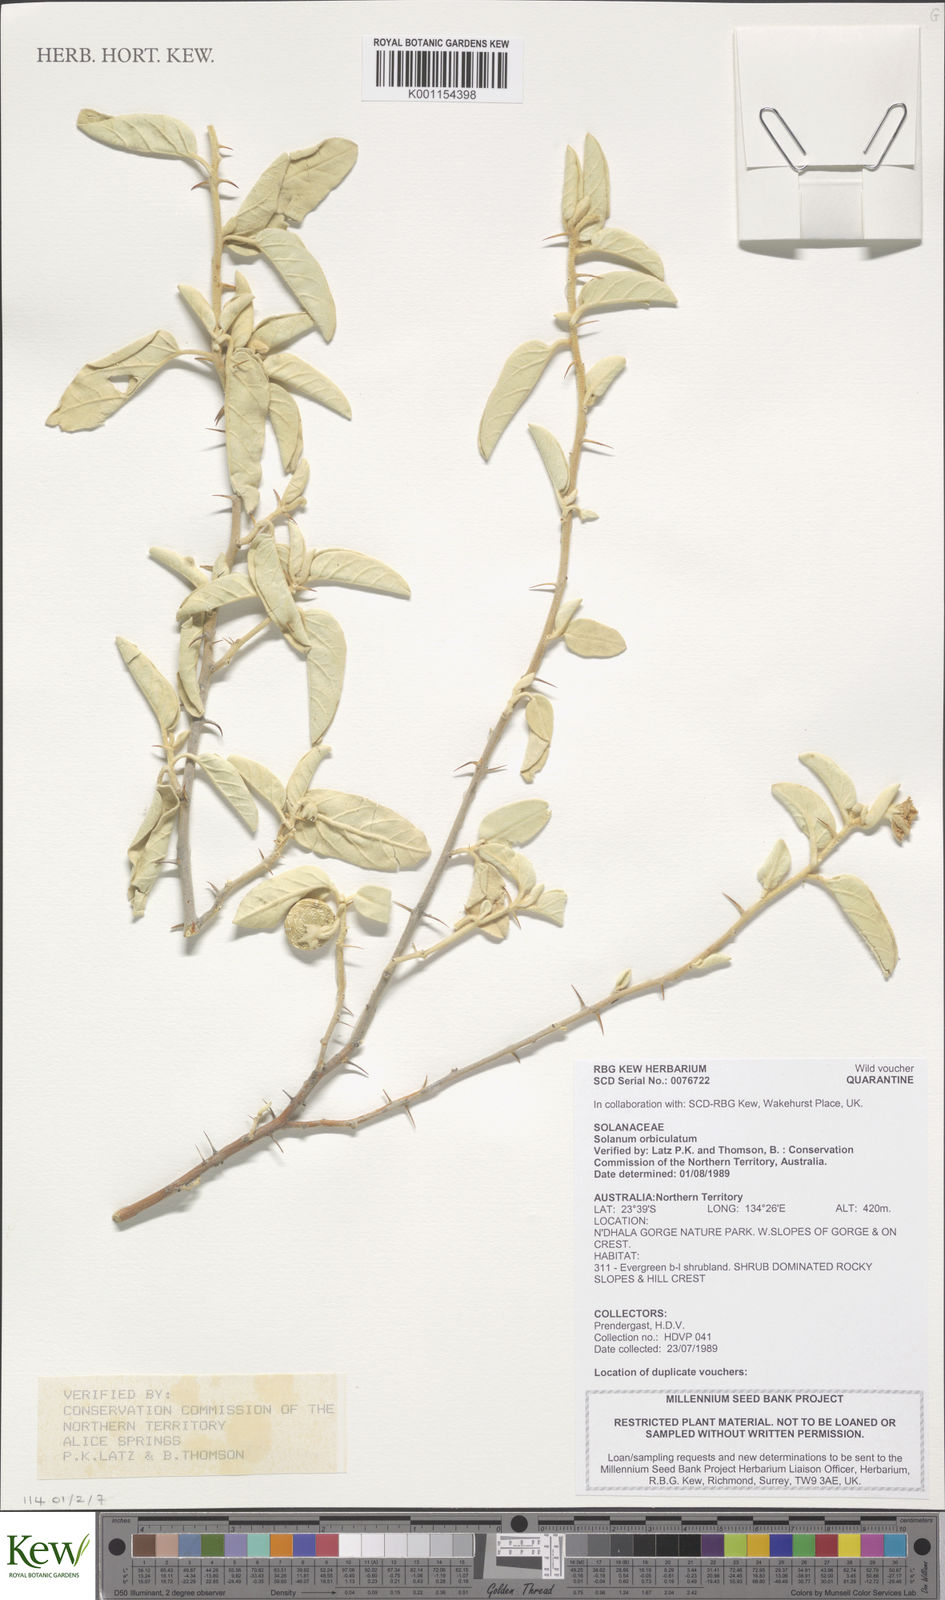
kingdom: Plantae
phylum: Tracheophyta
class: Magnoliopsida
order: Solanales
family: Solanaceae
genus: Solanum
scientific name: Solanum orbiculatum
